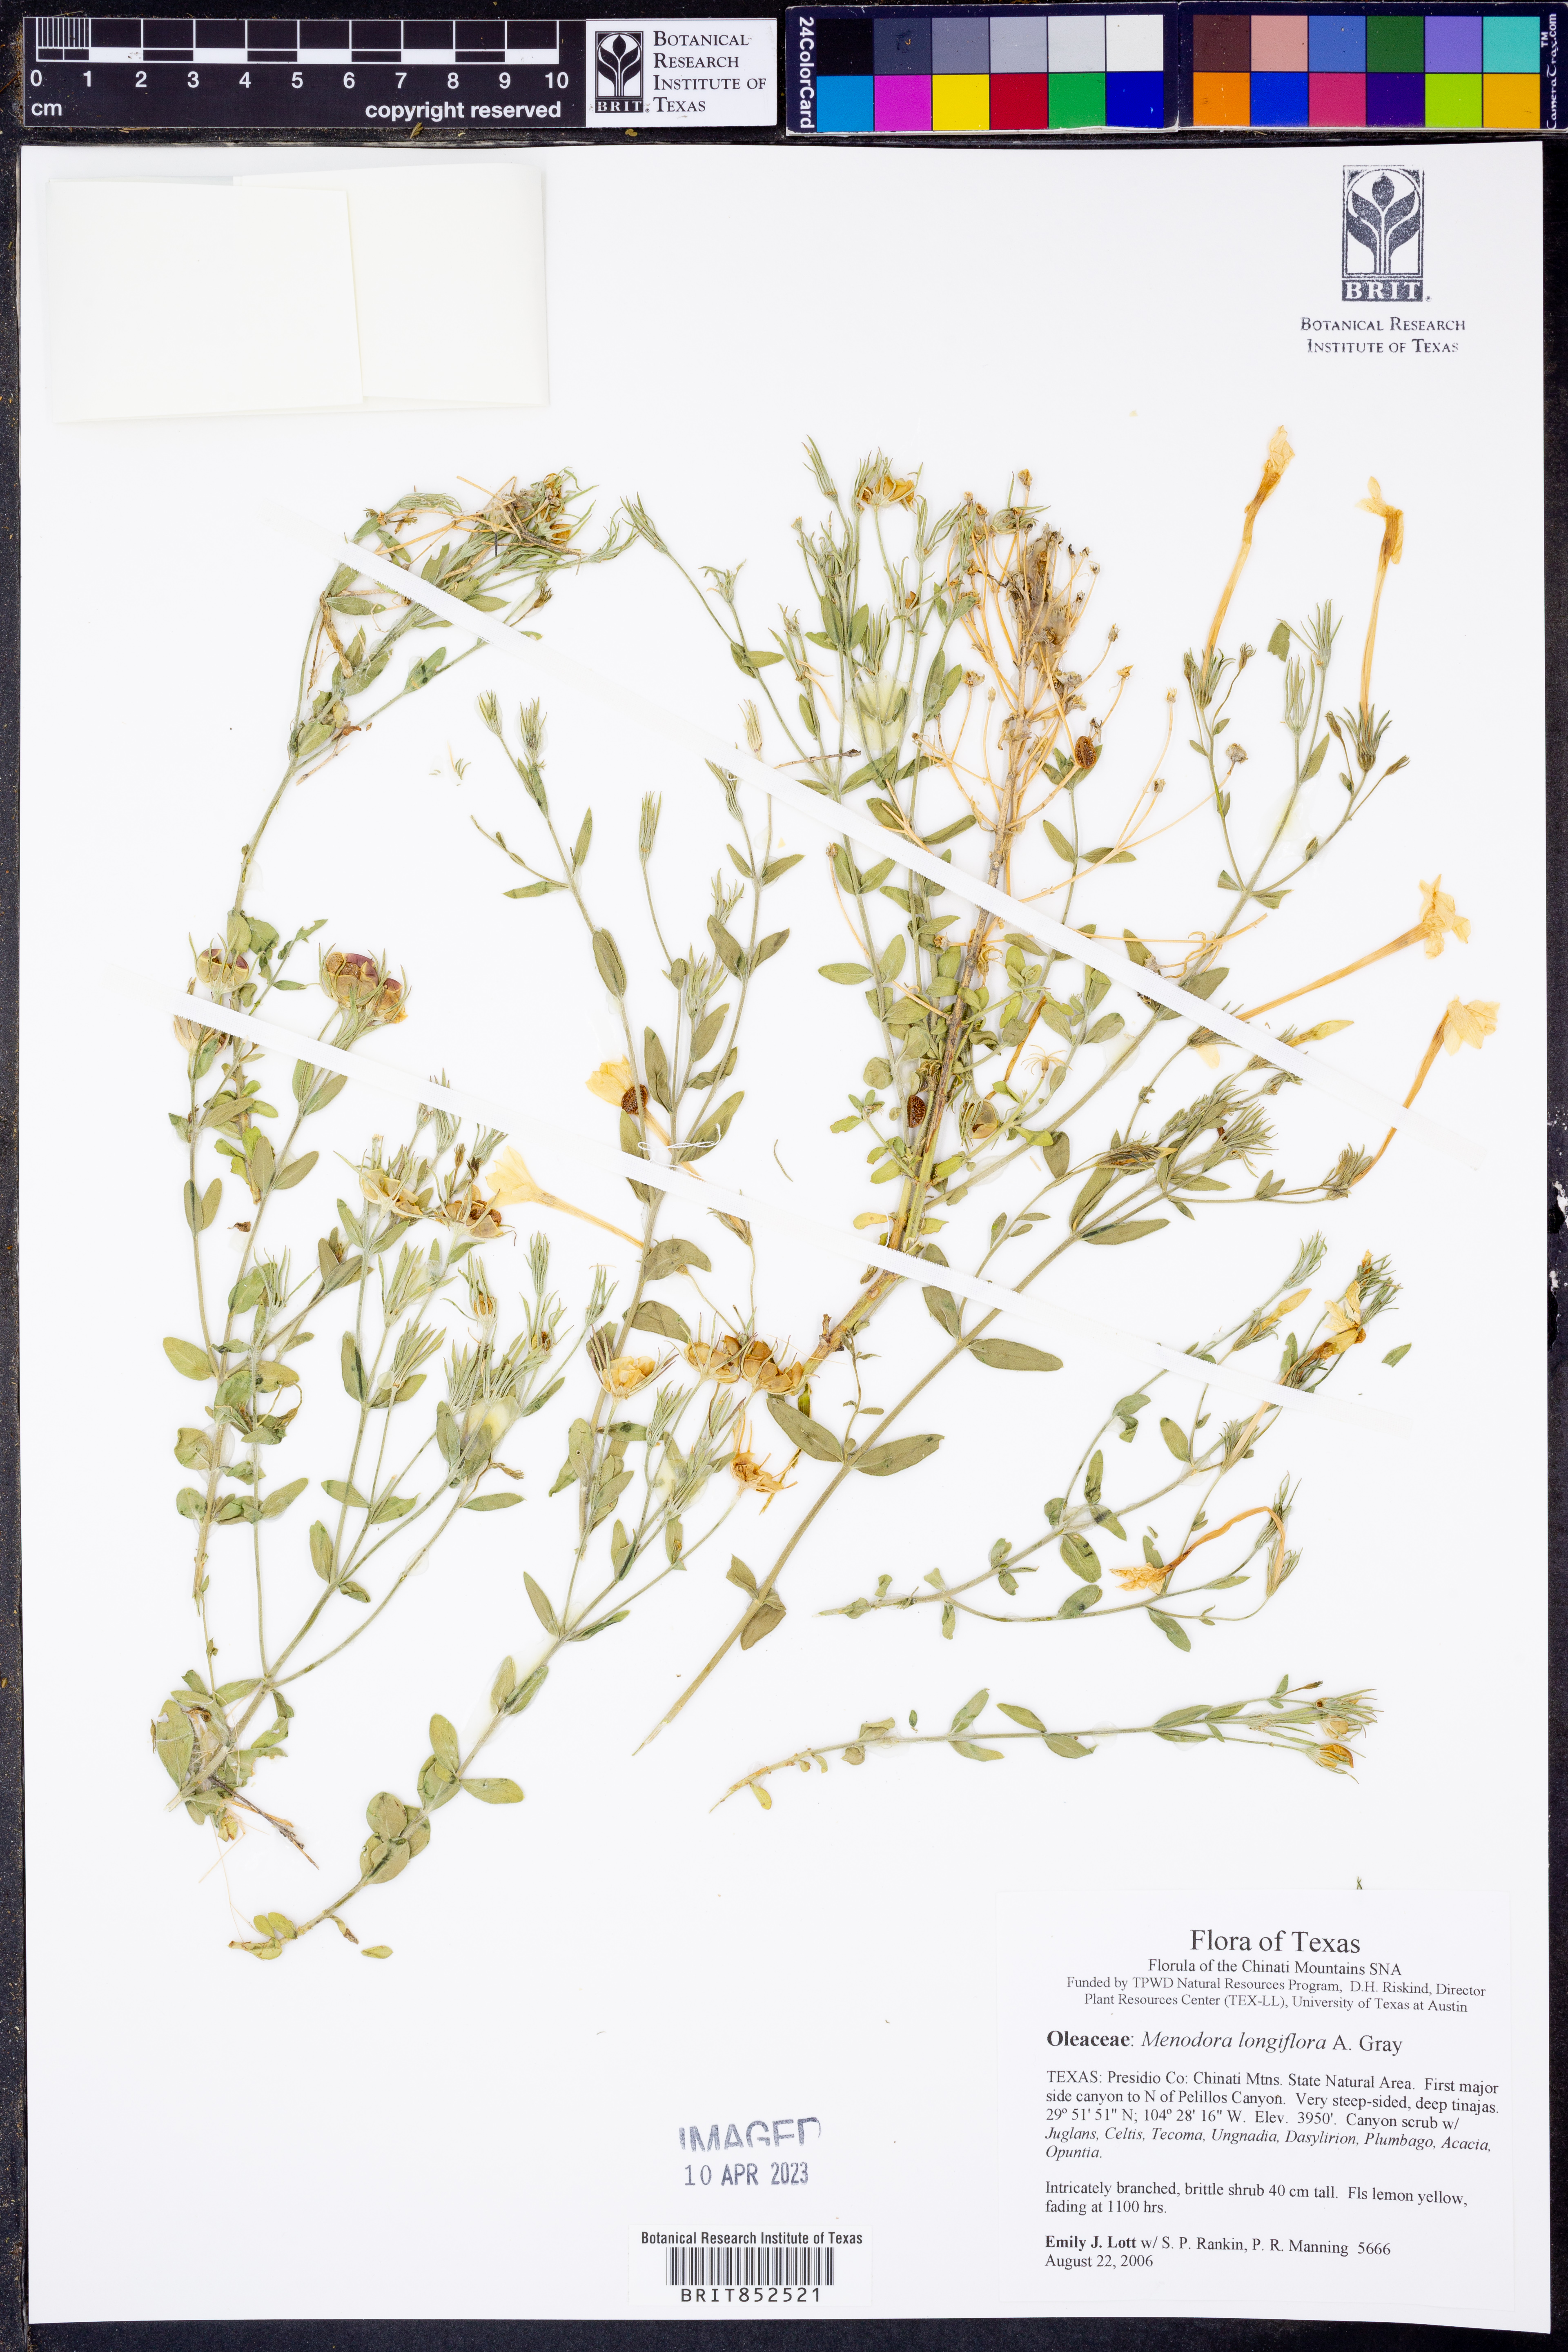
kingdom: Plantae
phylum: Tracheophyta
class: Magnoliopsida
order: Lamiales
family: Oleaceae
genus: Menodora
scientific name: Menodora longiflora
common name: Showy menodora
